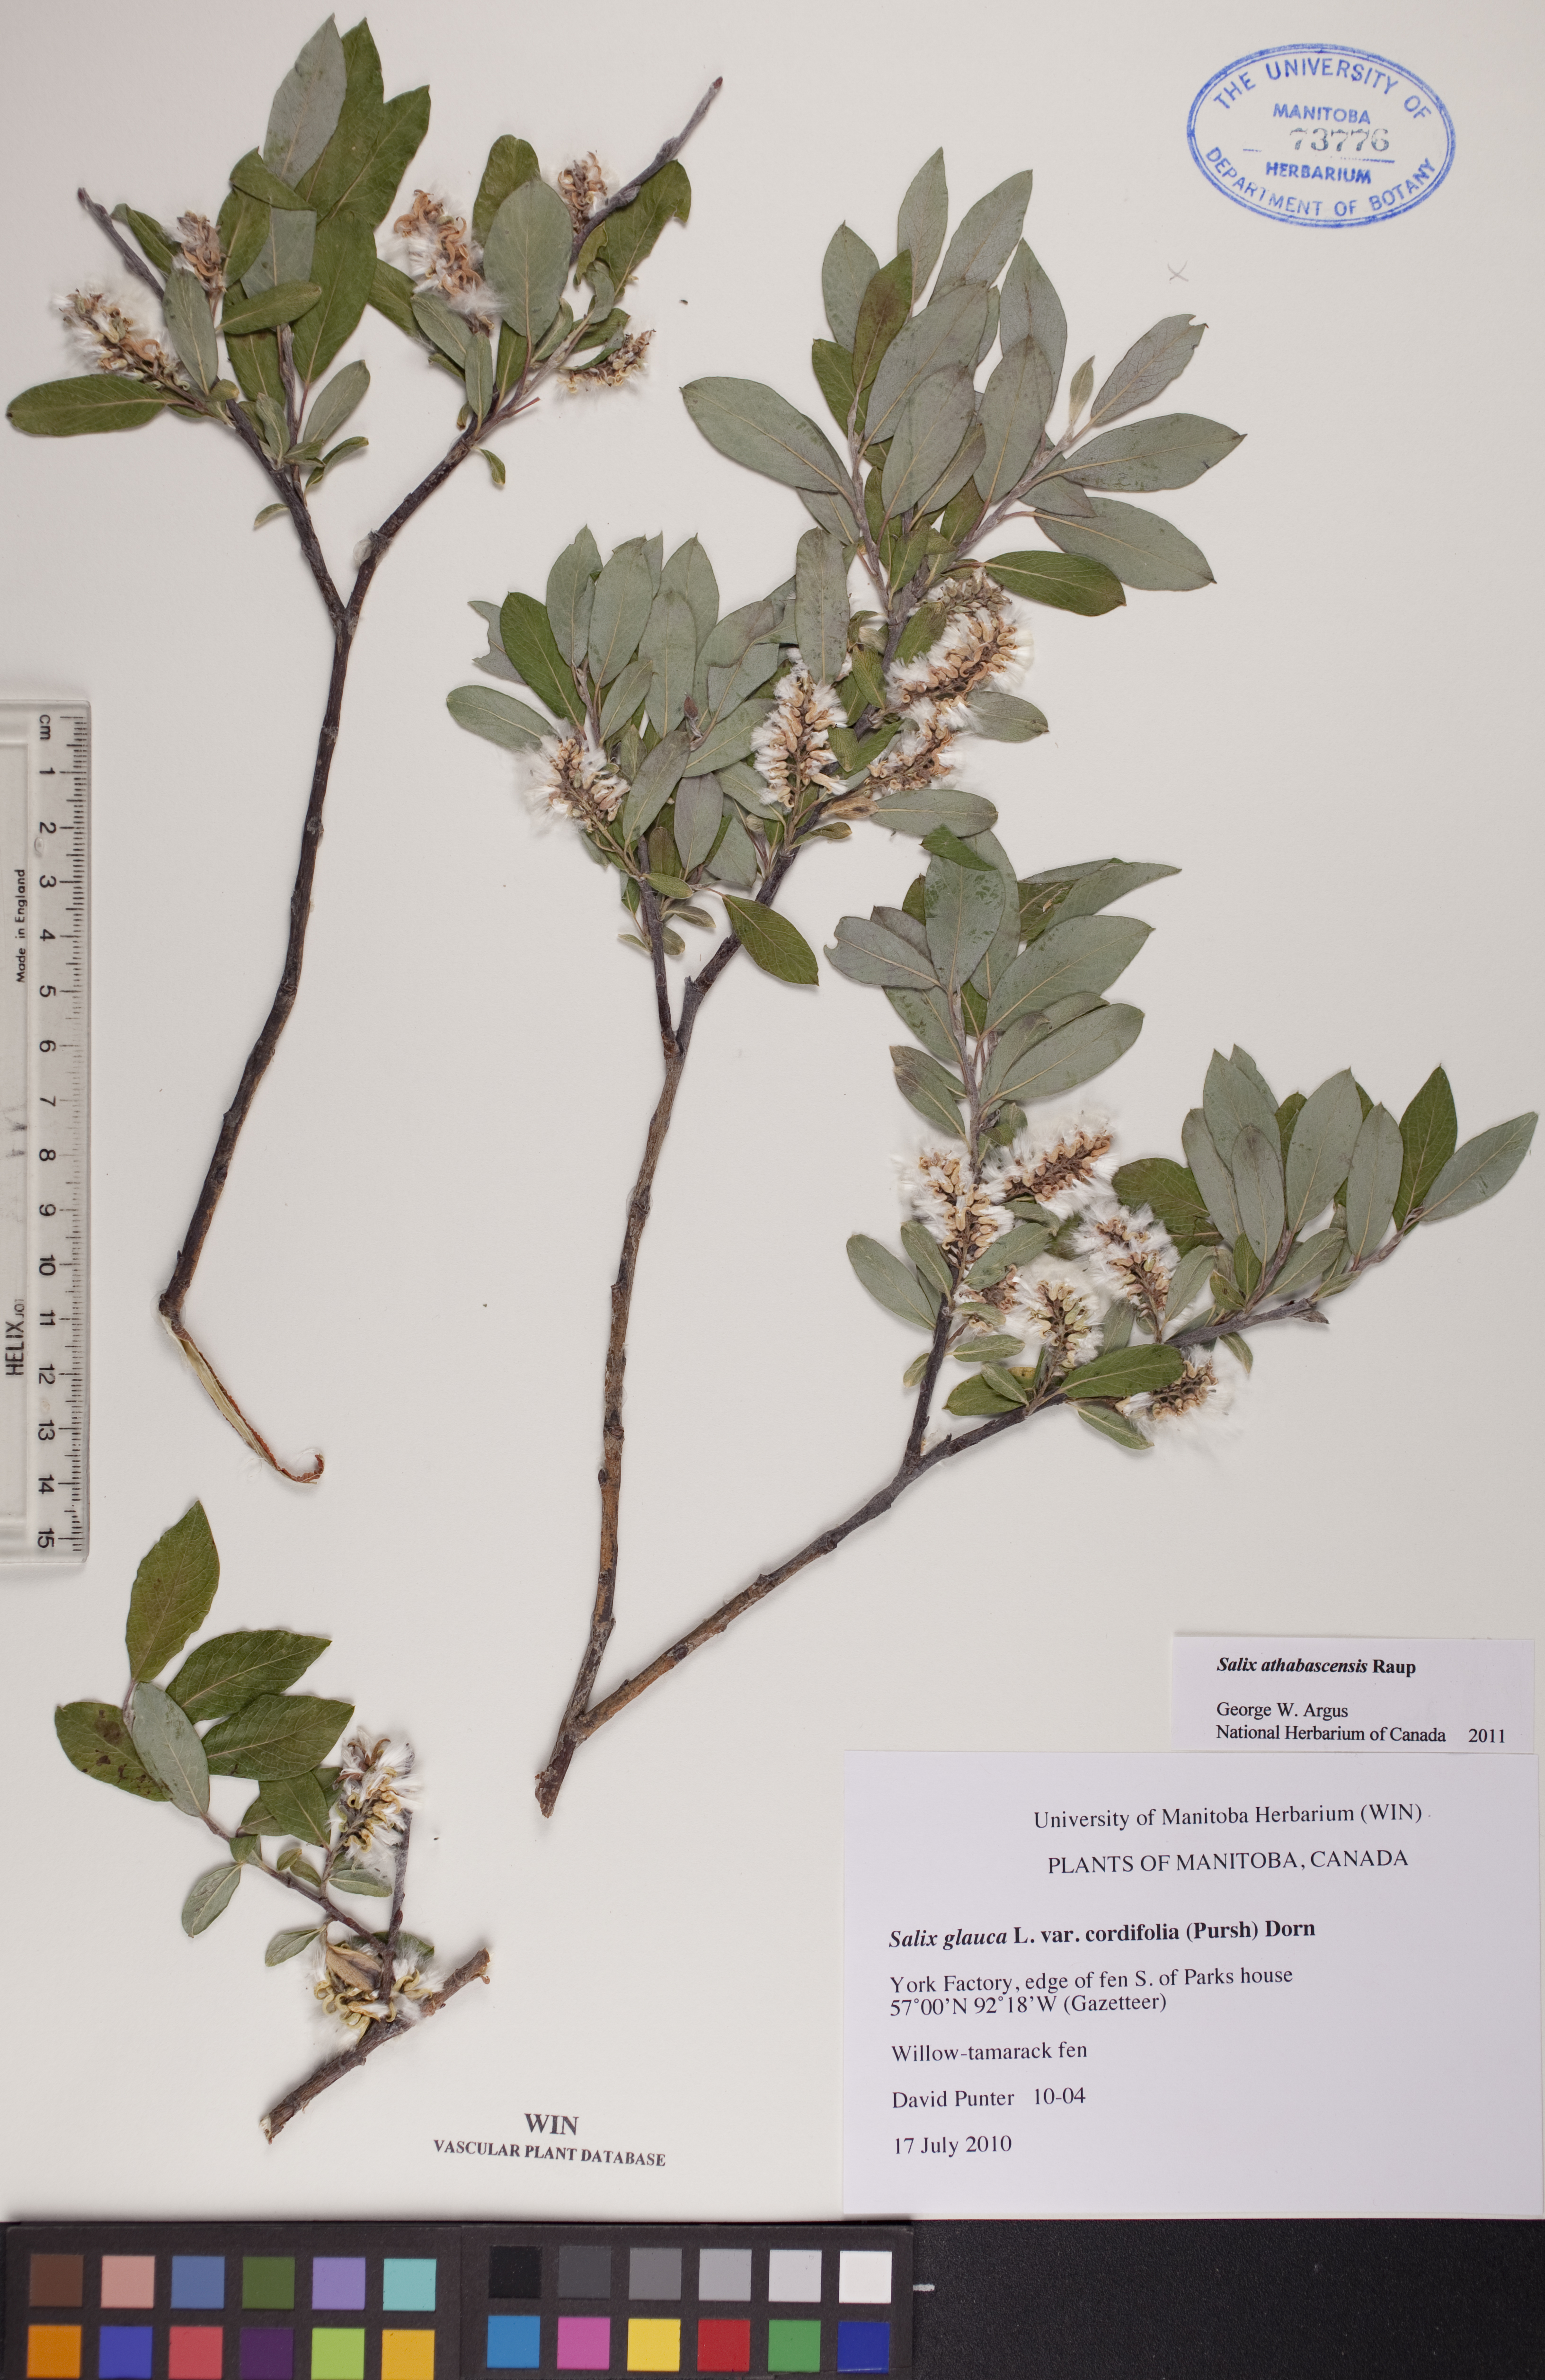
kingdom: Plantae
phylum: Tracheophyta
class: Magnoliopsida
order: Malpighiales
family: Salicaceae
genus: Salix
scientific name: Salix athabascensis
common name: Athabasca willow
